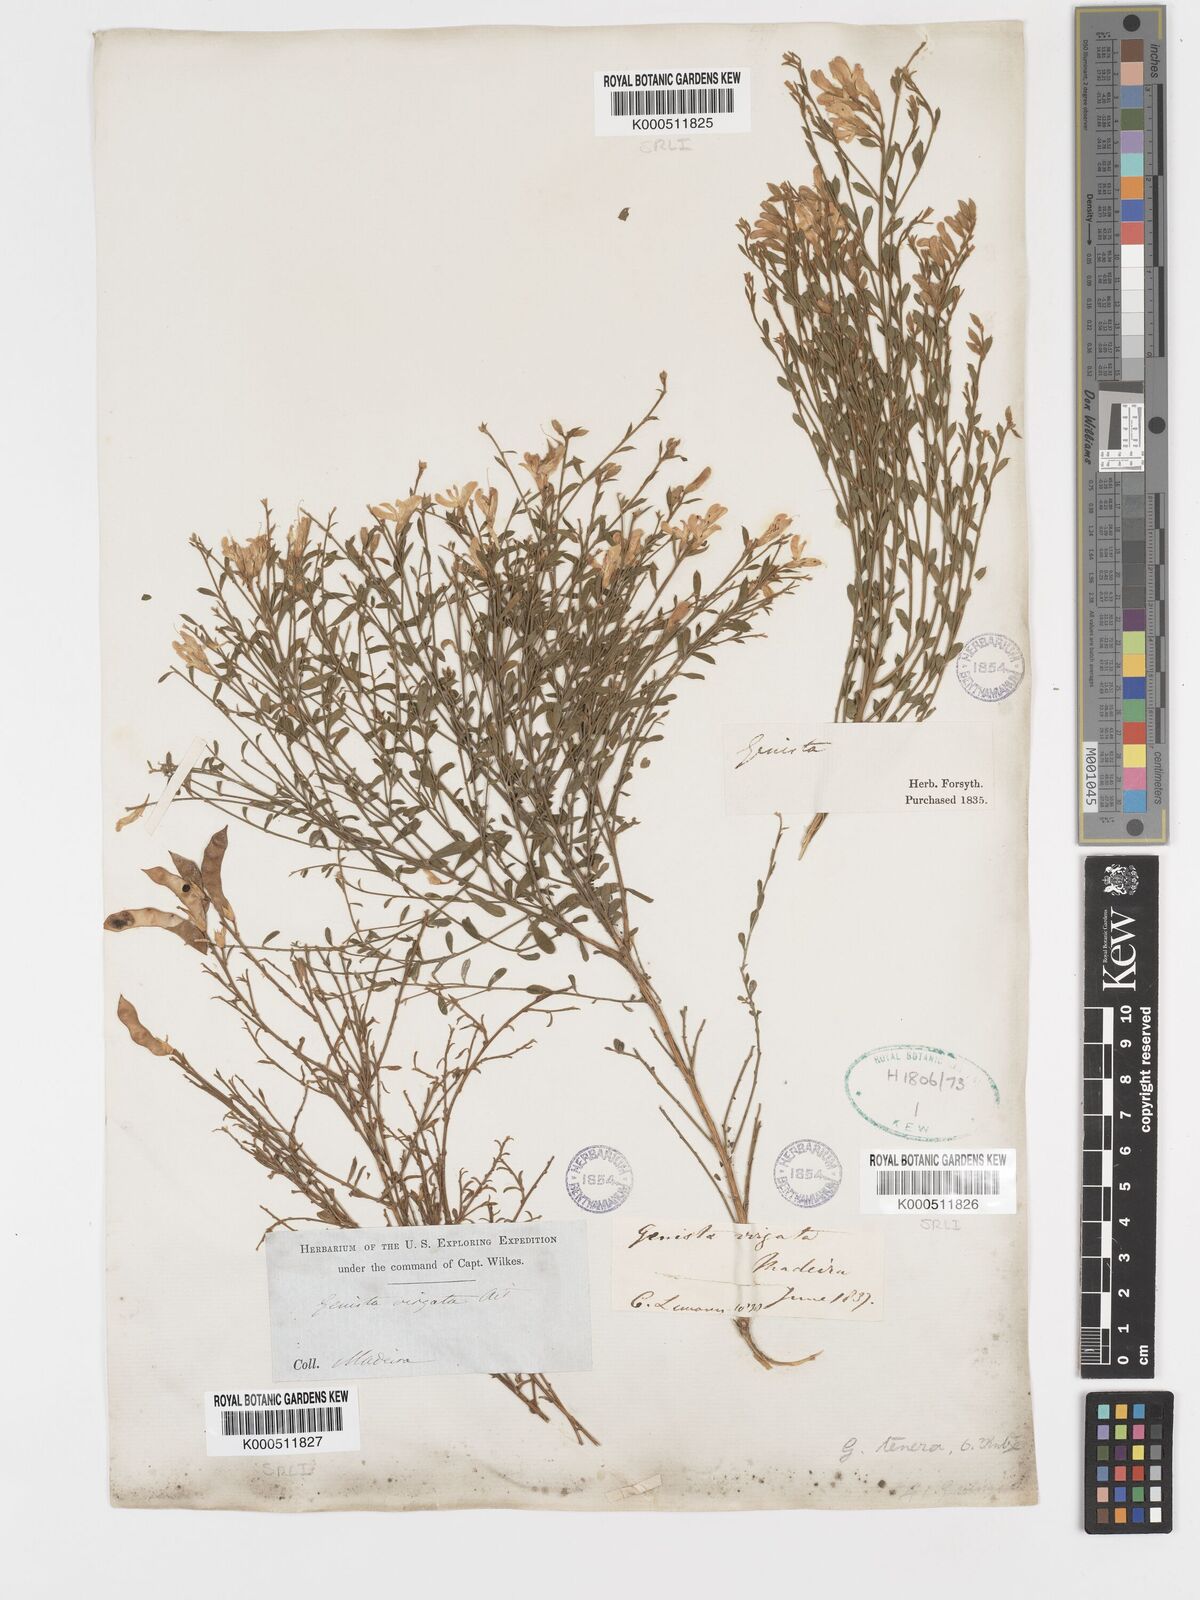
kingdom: Plantae
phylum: Tracheophyta
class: Magnoliopsida
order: Fabales
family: Fabaceae
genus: Genista
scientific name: Genista tenera
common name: Madeira broom
